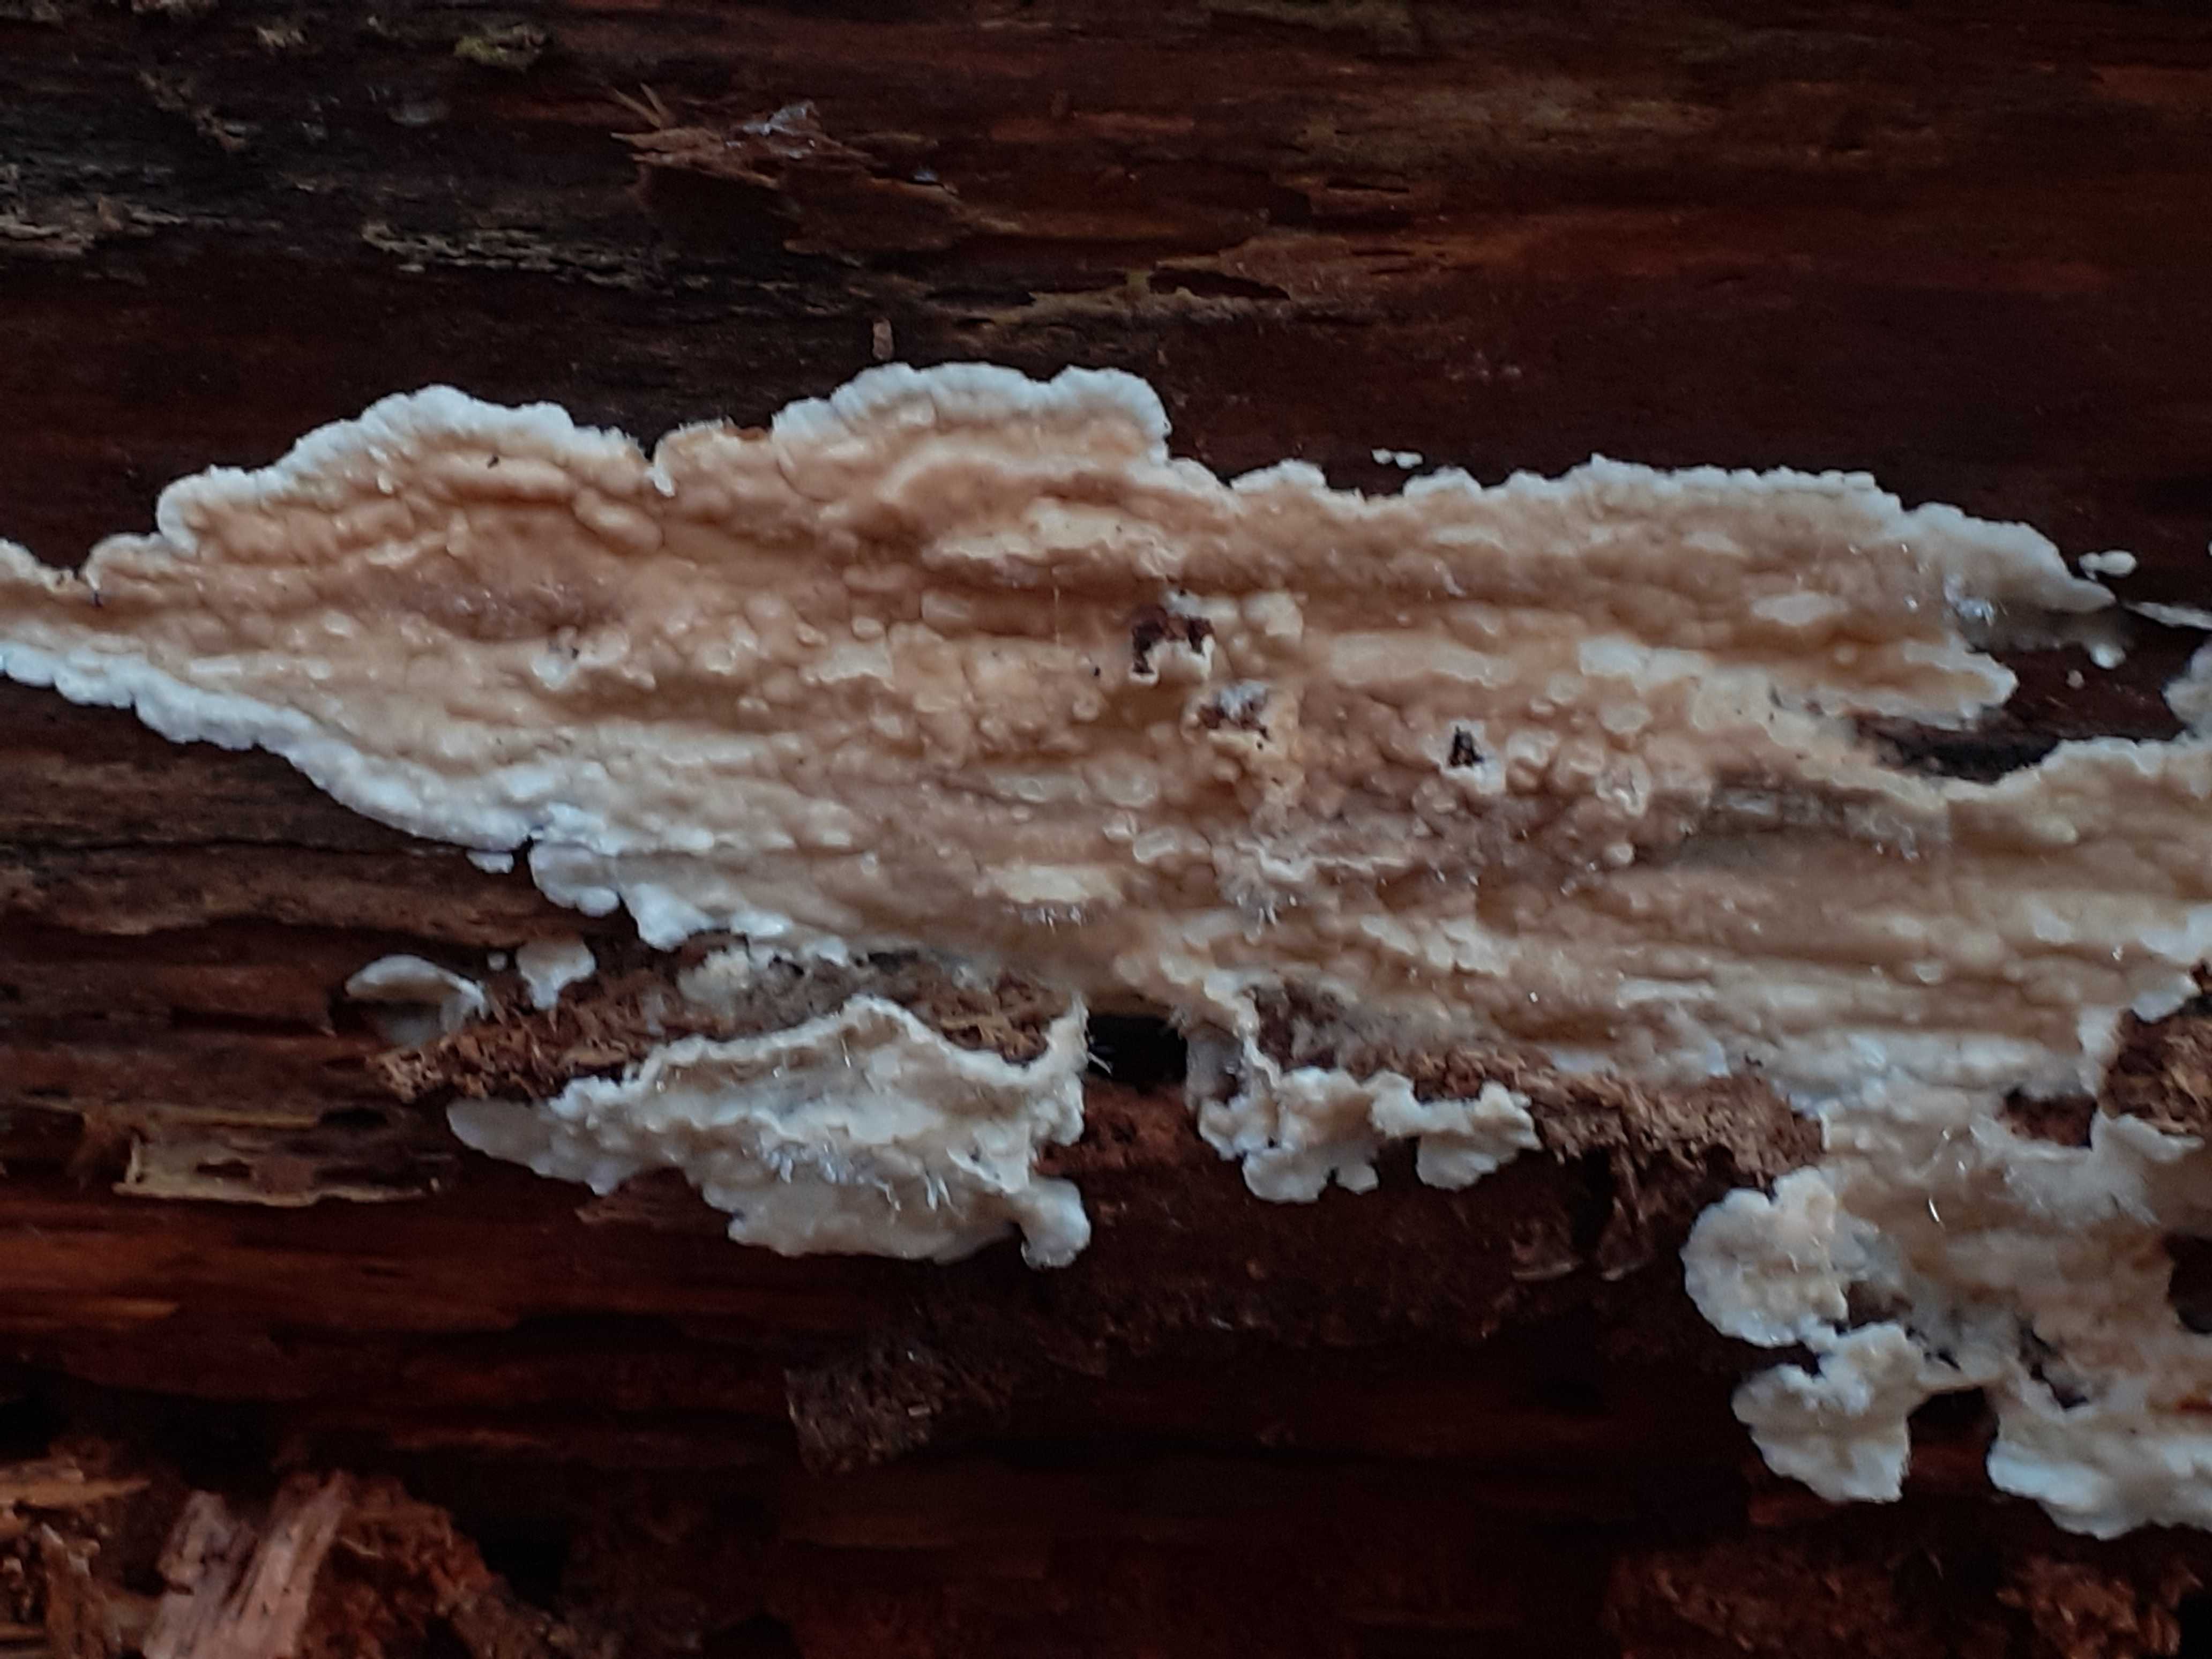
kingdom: Fungi
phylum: Basidiomycota
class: Agaricomycetes
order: Agaricales
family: Physalacriaceae
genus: Cylindrobasidium
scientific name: Cylindrobasidium evolvens
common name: sprækkehinde
